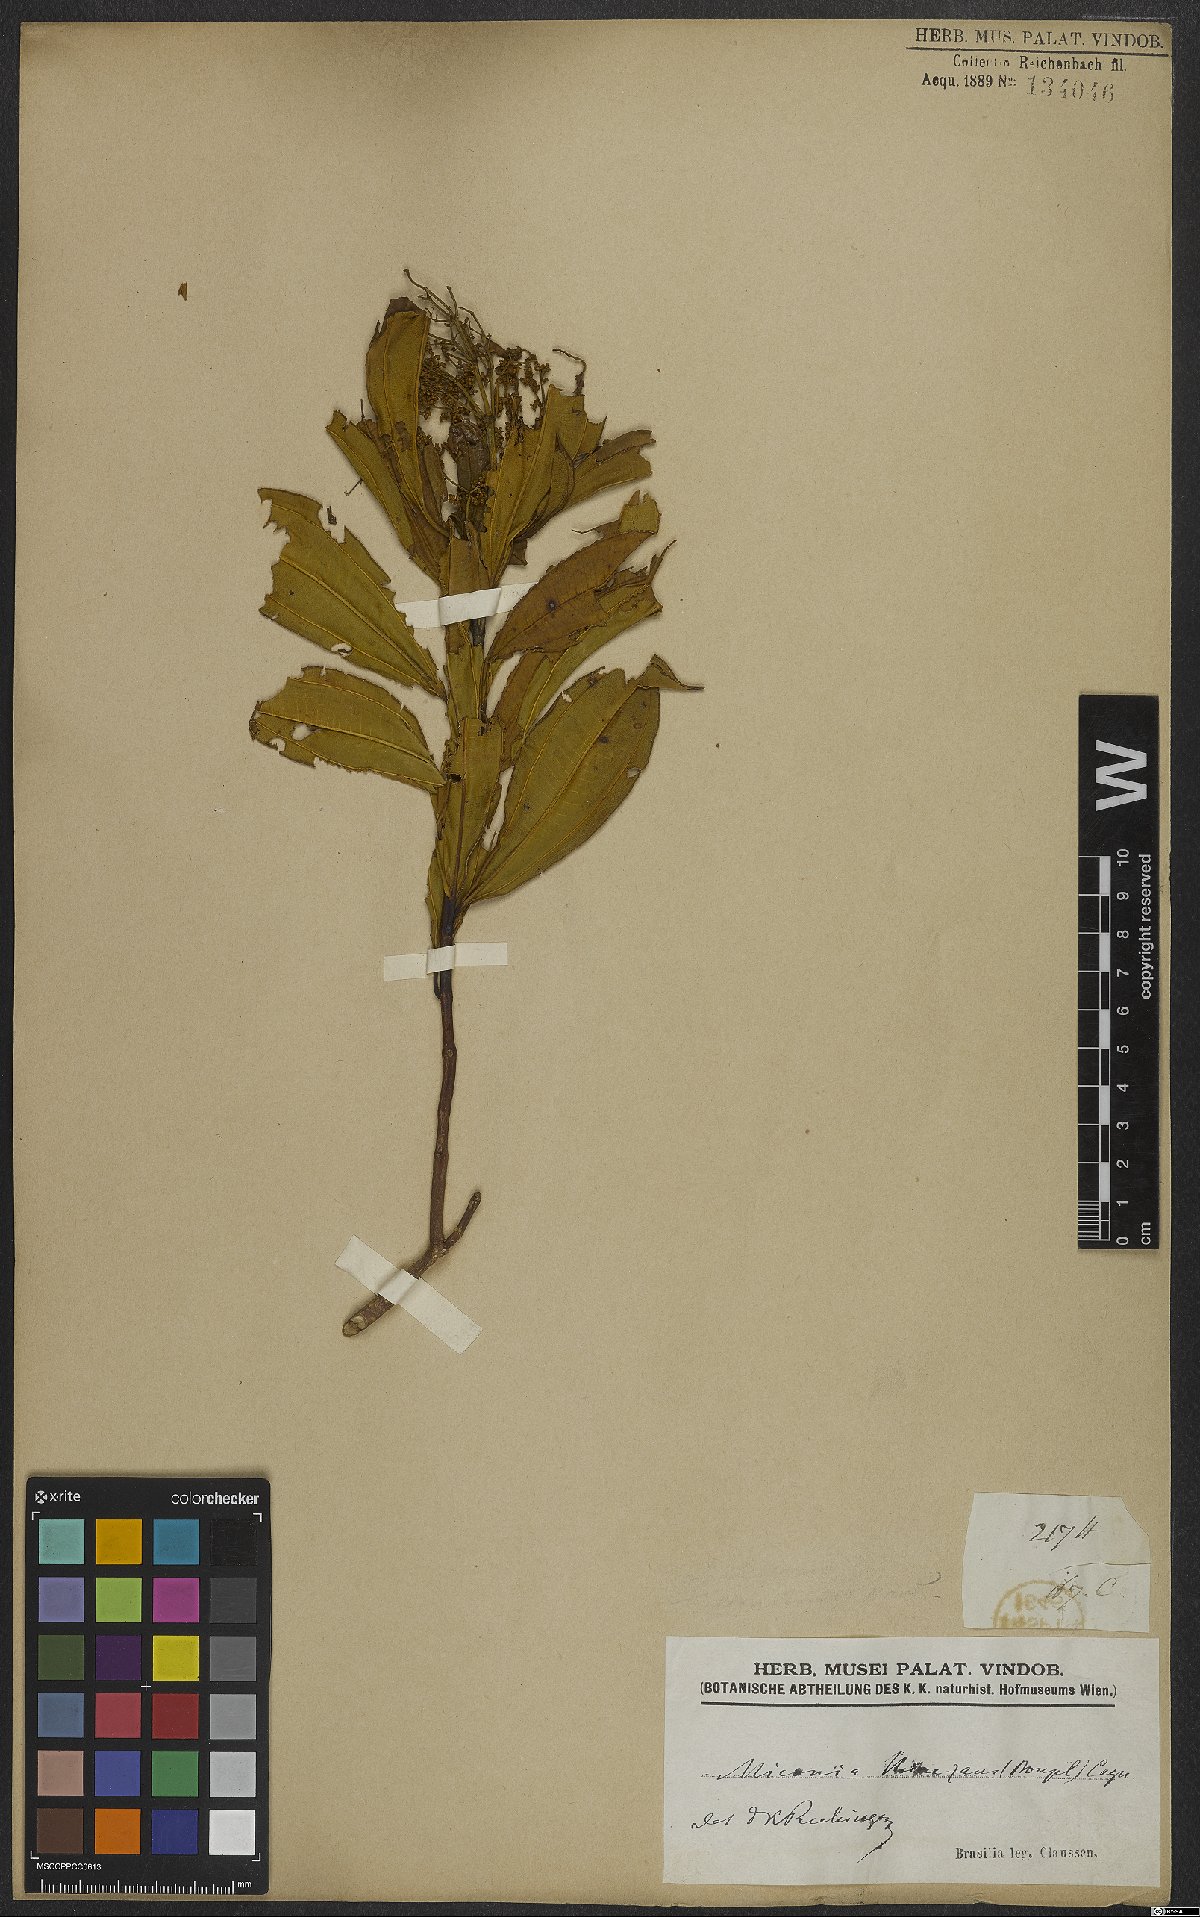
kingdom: Plantae
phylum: Tracheophyta
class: Magnoliopsida
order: Myrtales
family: Melastomataceae
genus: Miconia
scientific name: Miconia theizans
